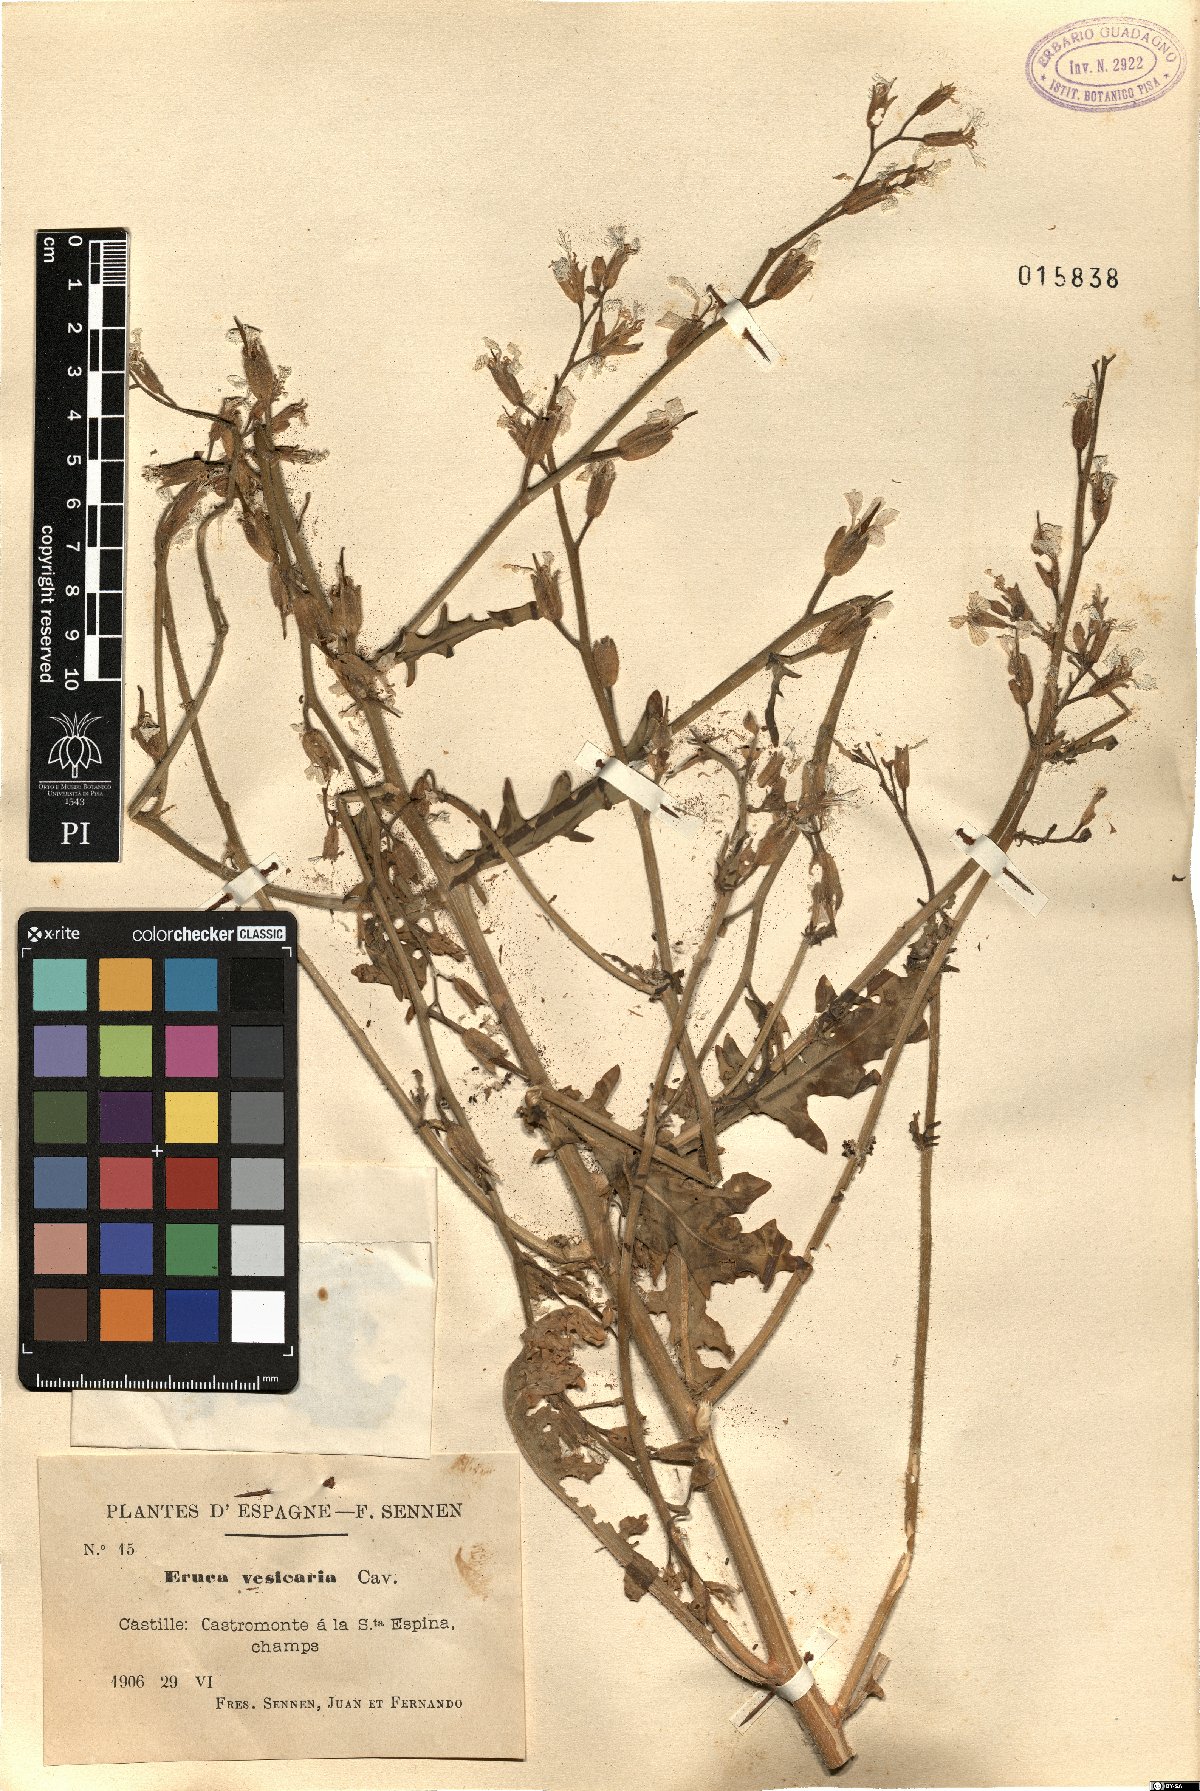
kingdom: Plantae
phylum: Tracheophyta
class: Magnoliopsida
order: Brassicales
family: Brassicaceae
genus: Eruca
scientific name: Eruca vesicaria
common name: Garden rocket
